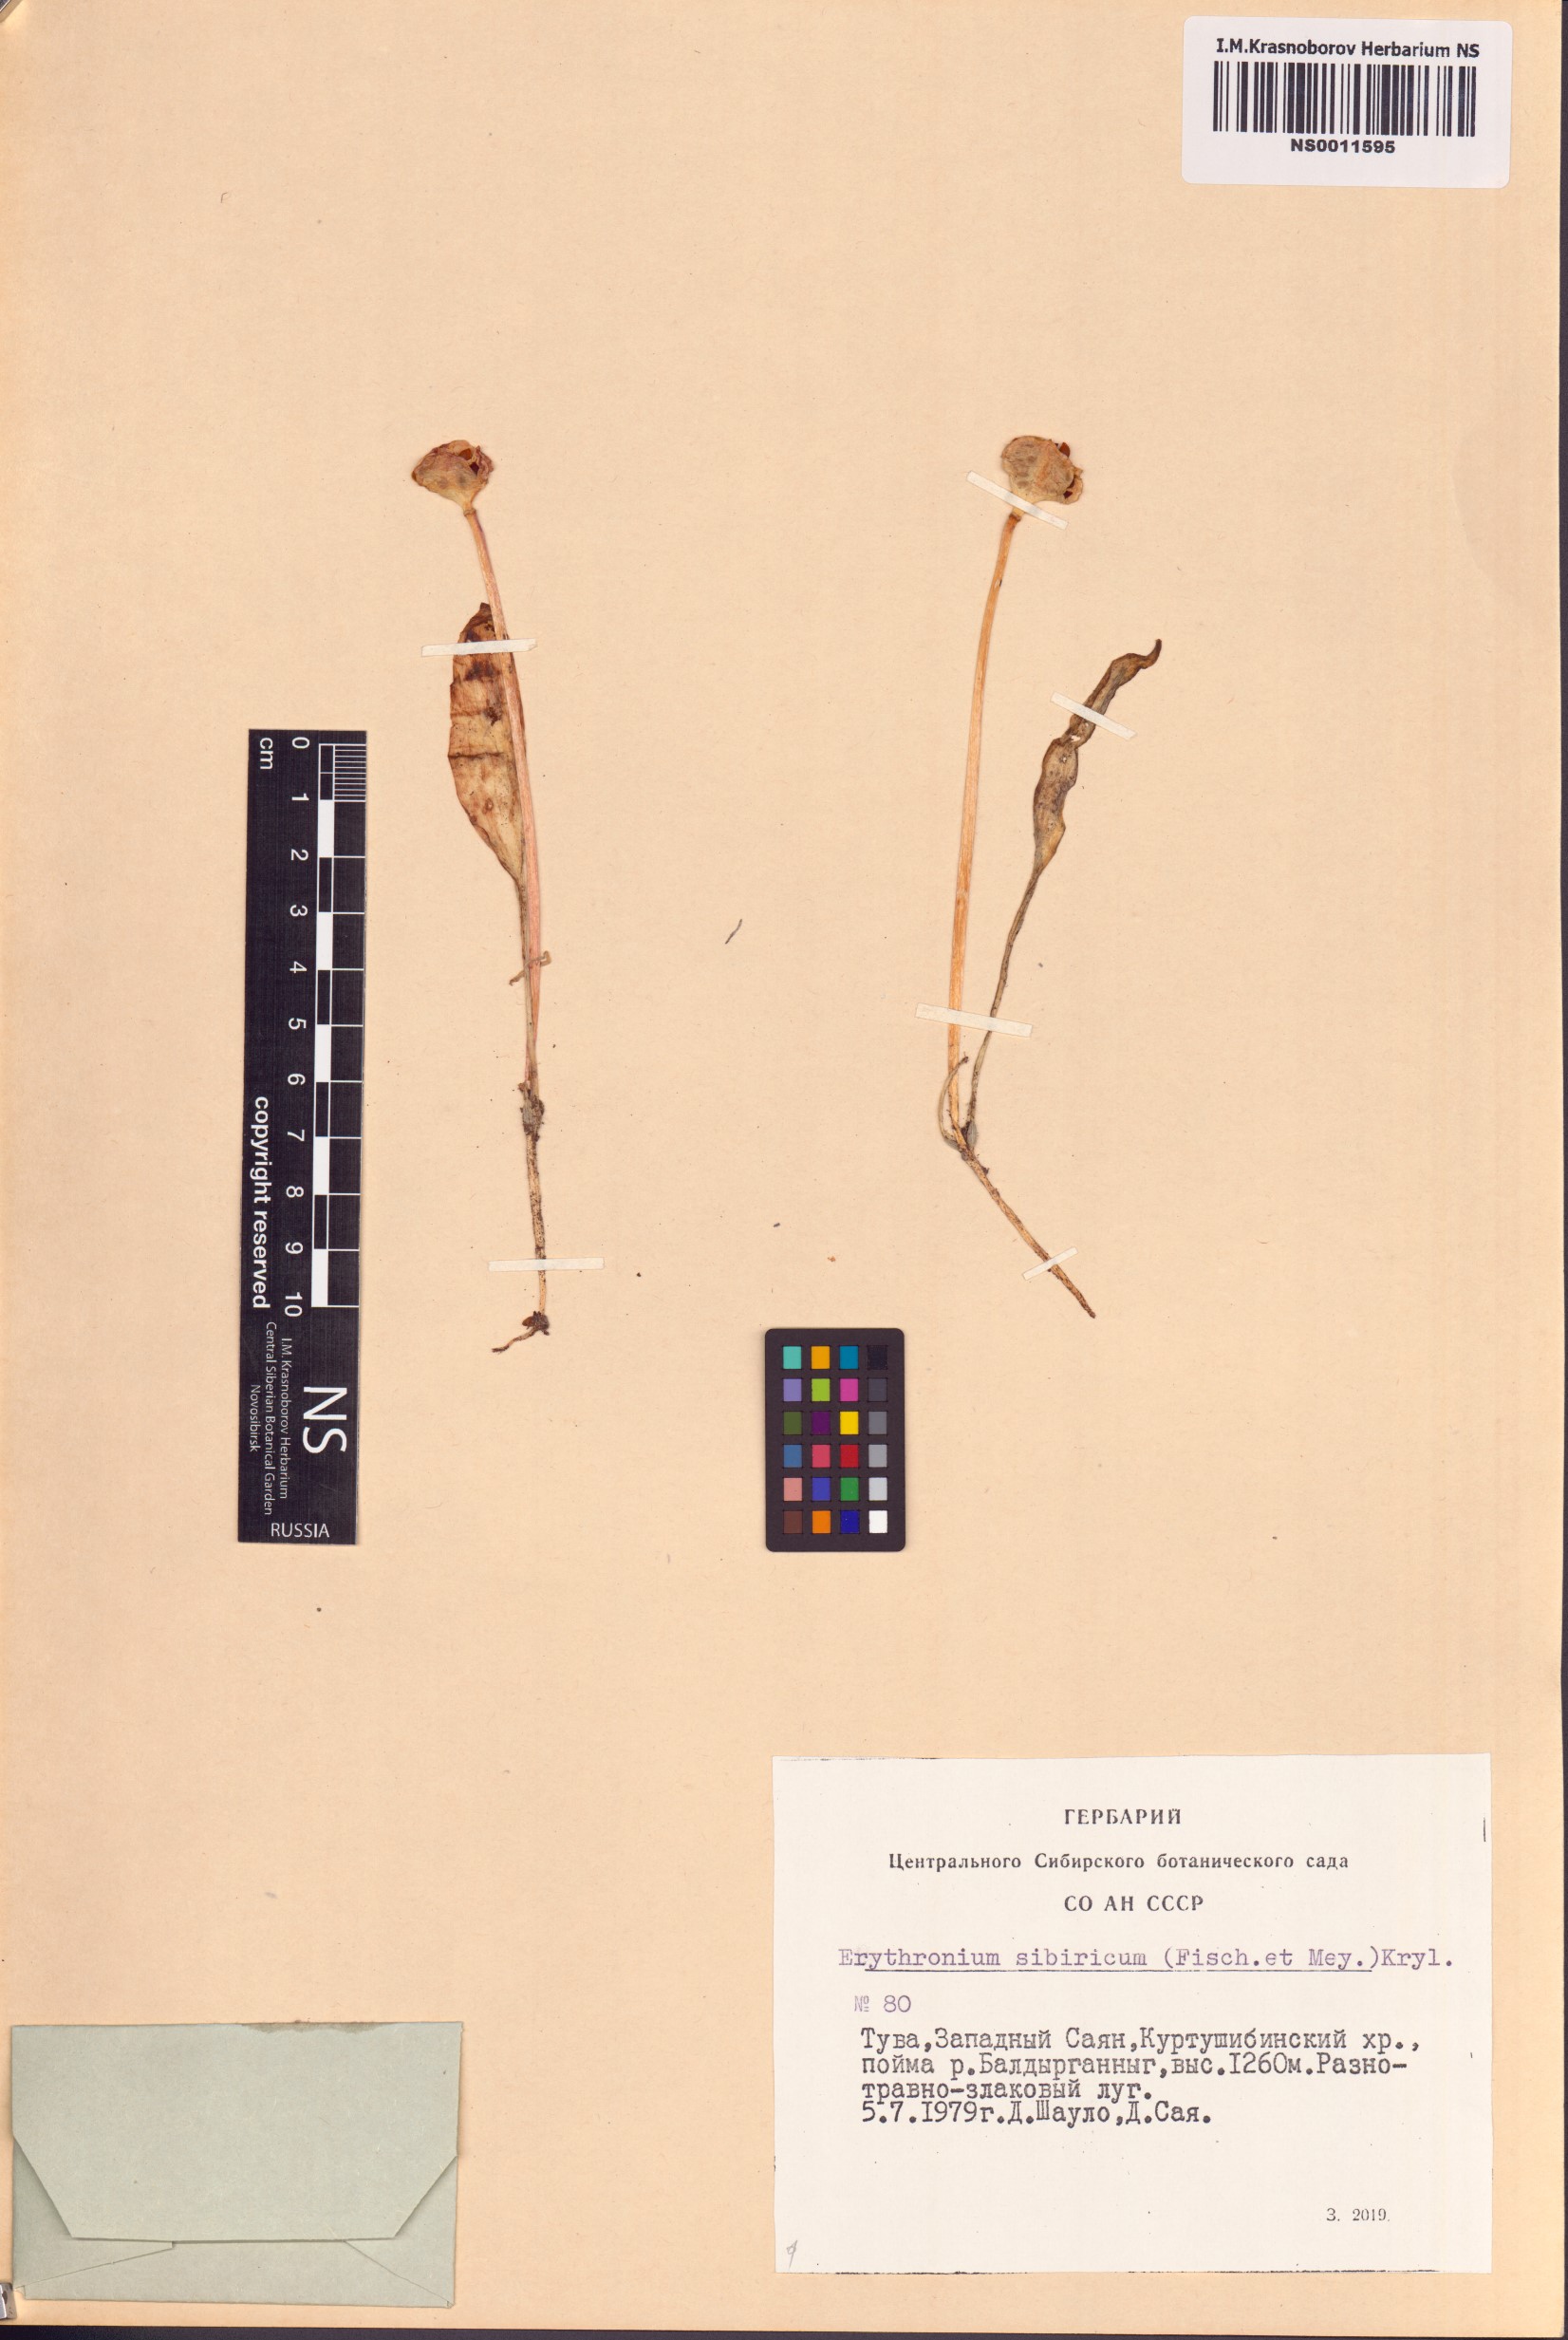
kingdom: Plantae
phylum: Tracheophyta
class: Liliopsida
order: Liliales
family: Liliaceae
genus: Erythronium
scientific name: Erythronium sibiricum
